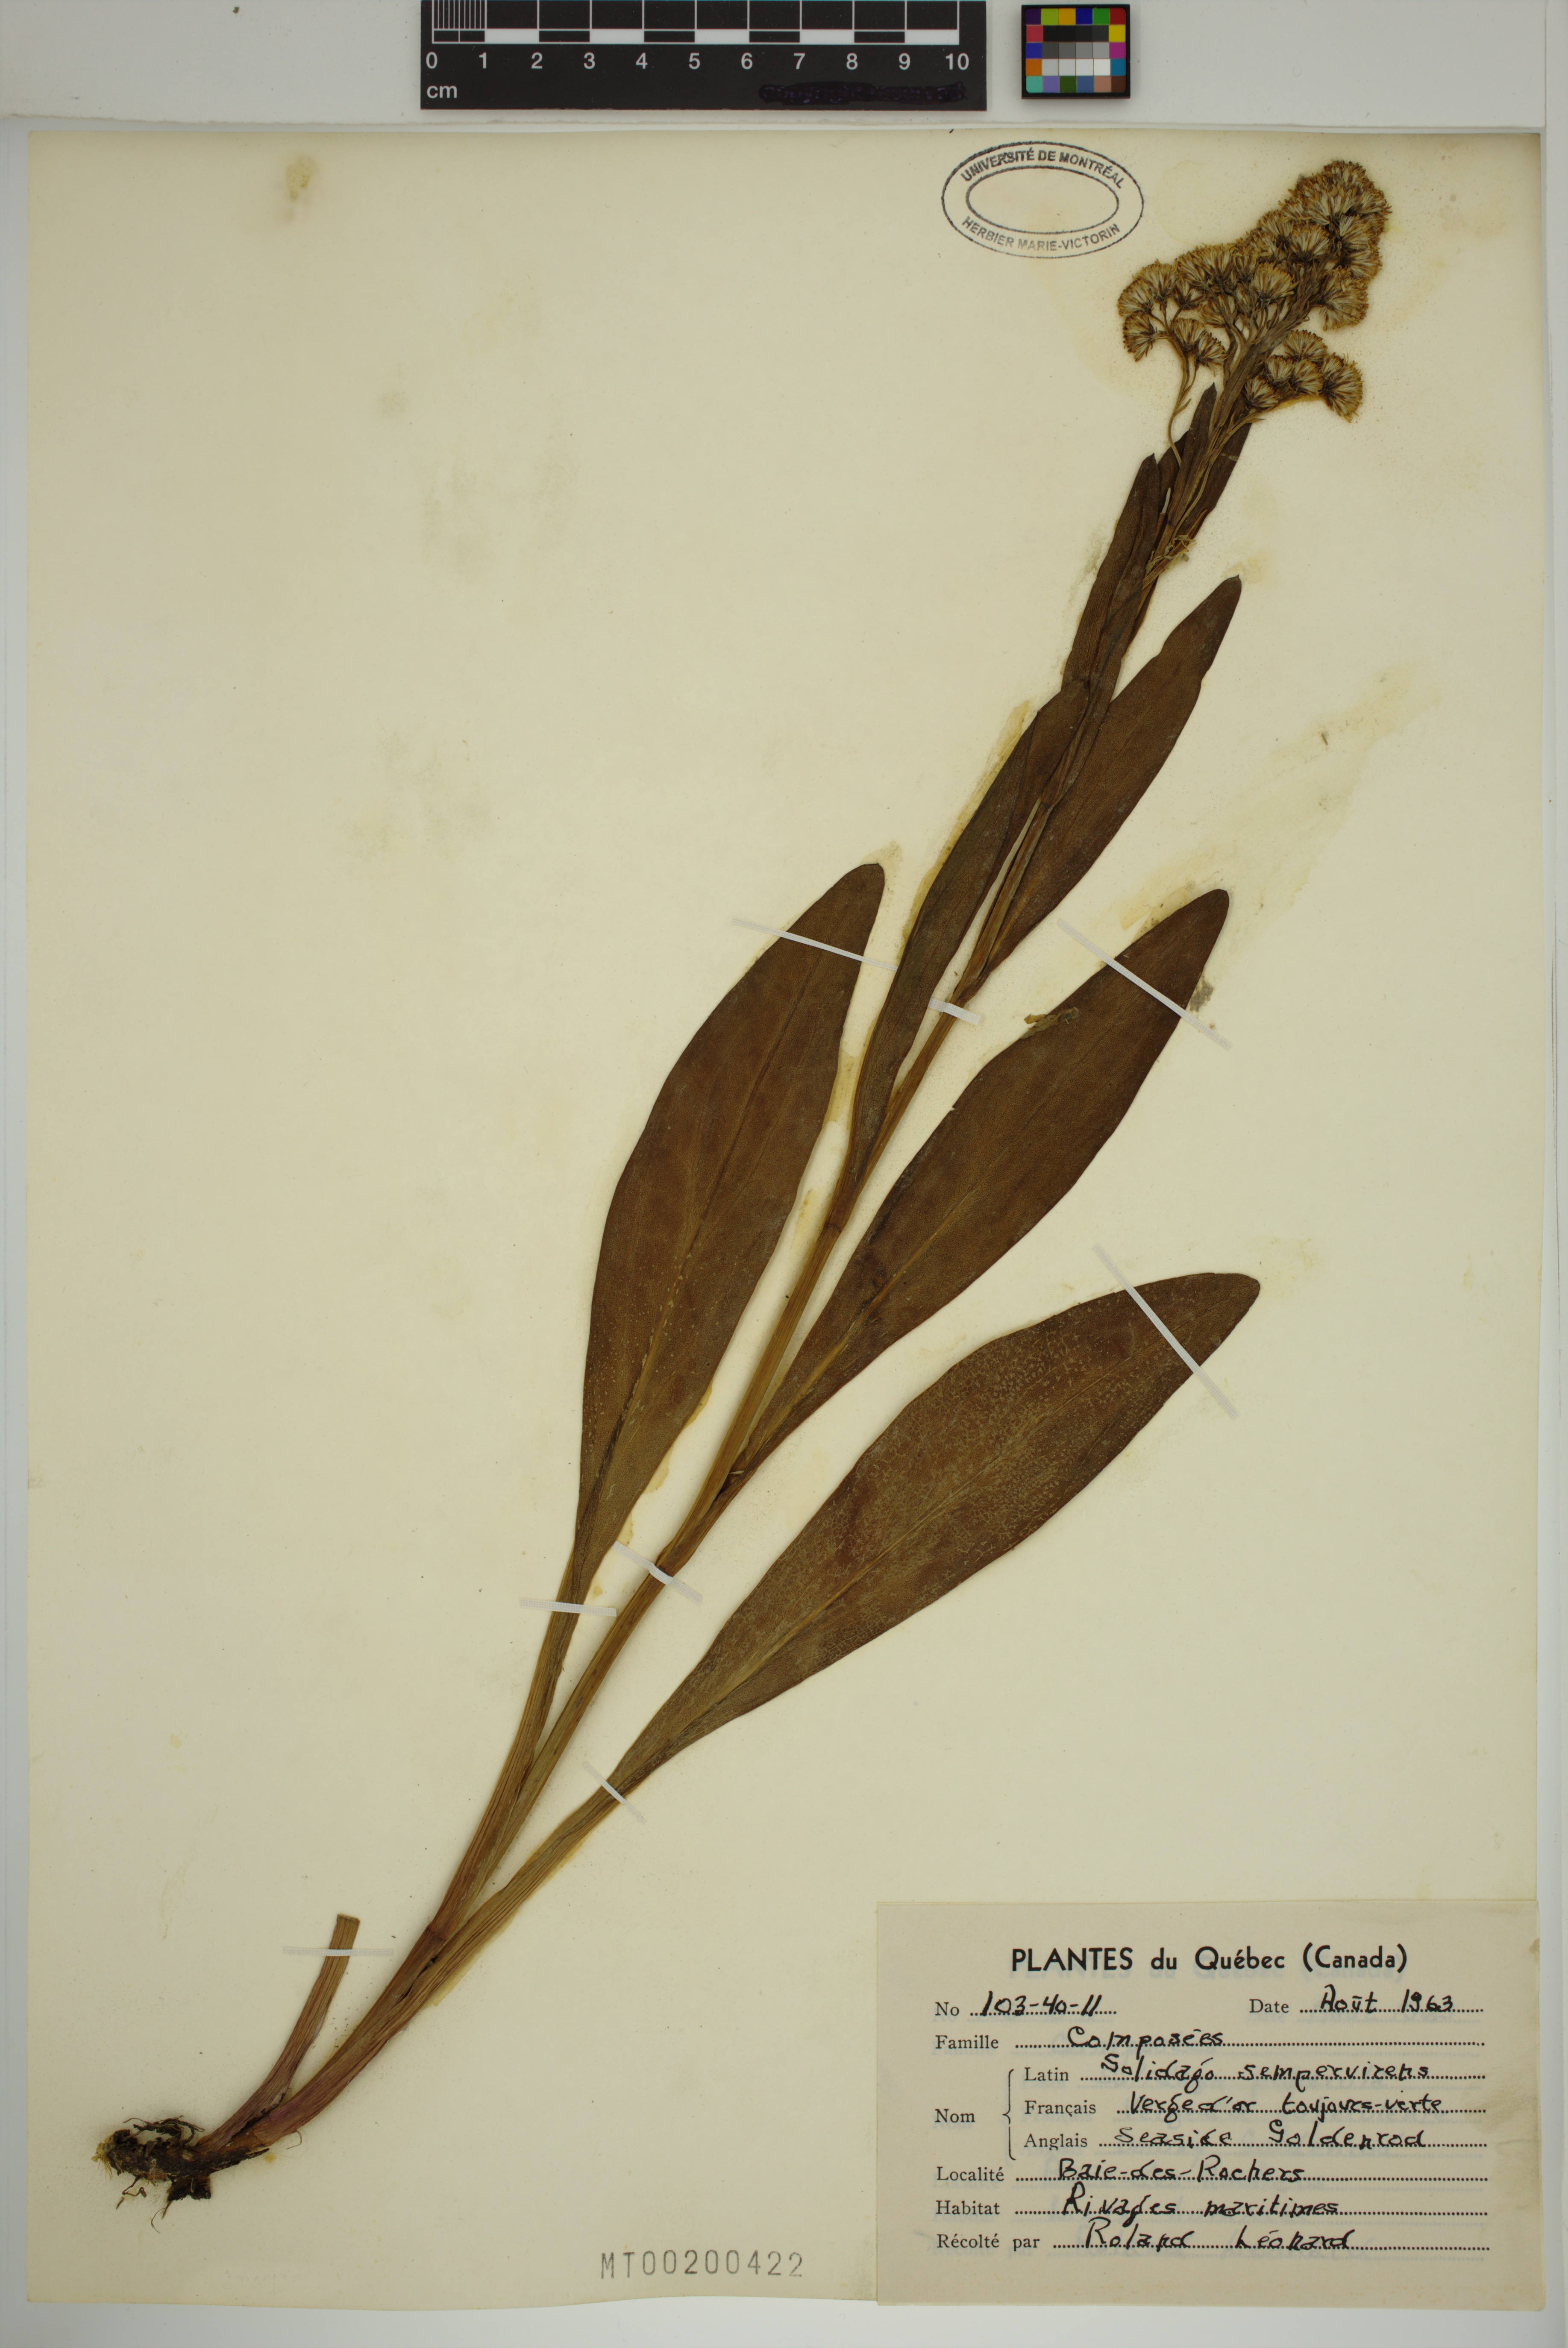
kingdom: Plantae
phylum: Tracheophyta
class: Magnoliopsida
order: Asterales
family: Asteraceae
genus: Solidago
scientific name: Solidago sempervirens
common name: Salt-marsh goldenrod
